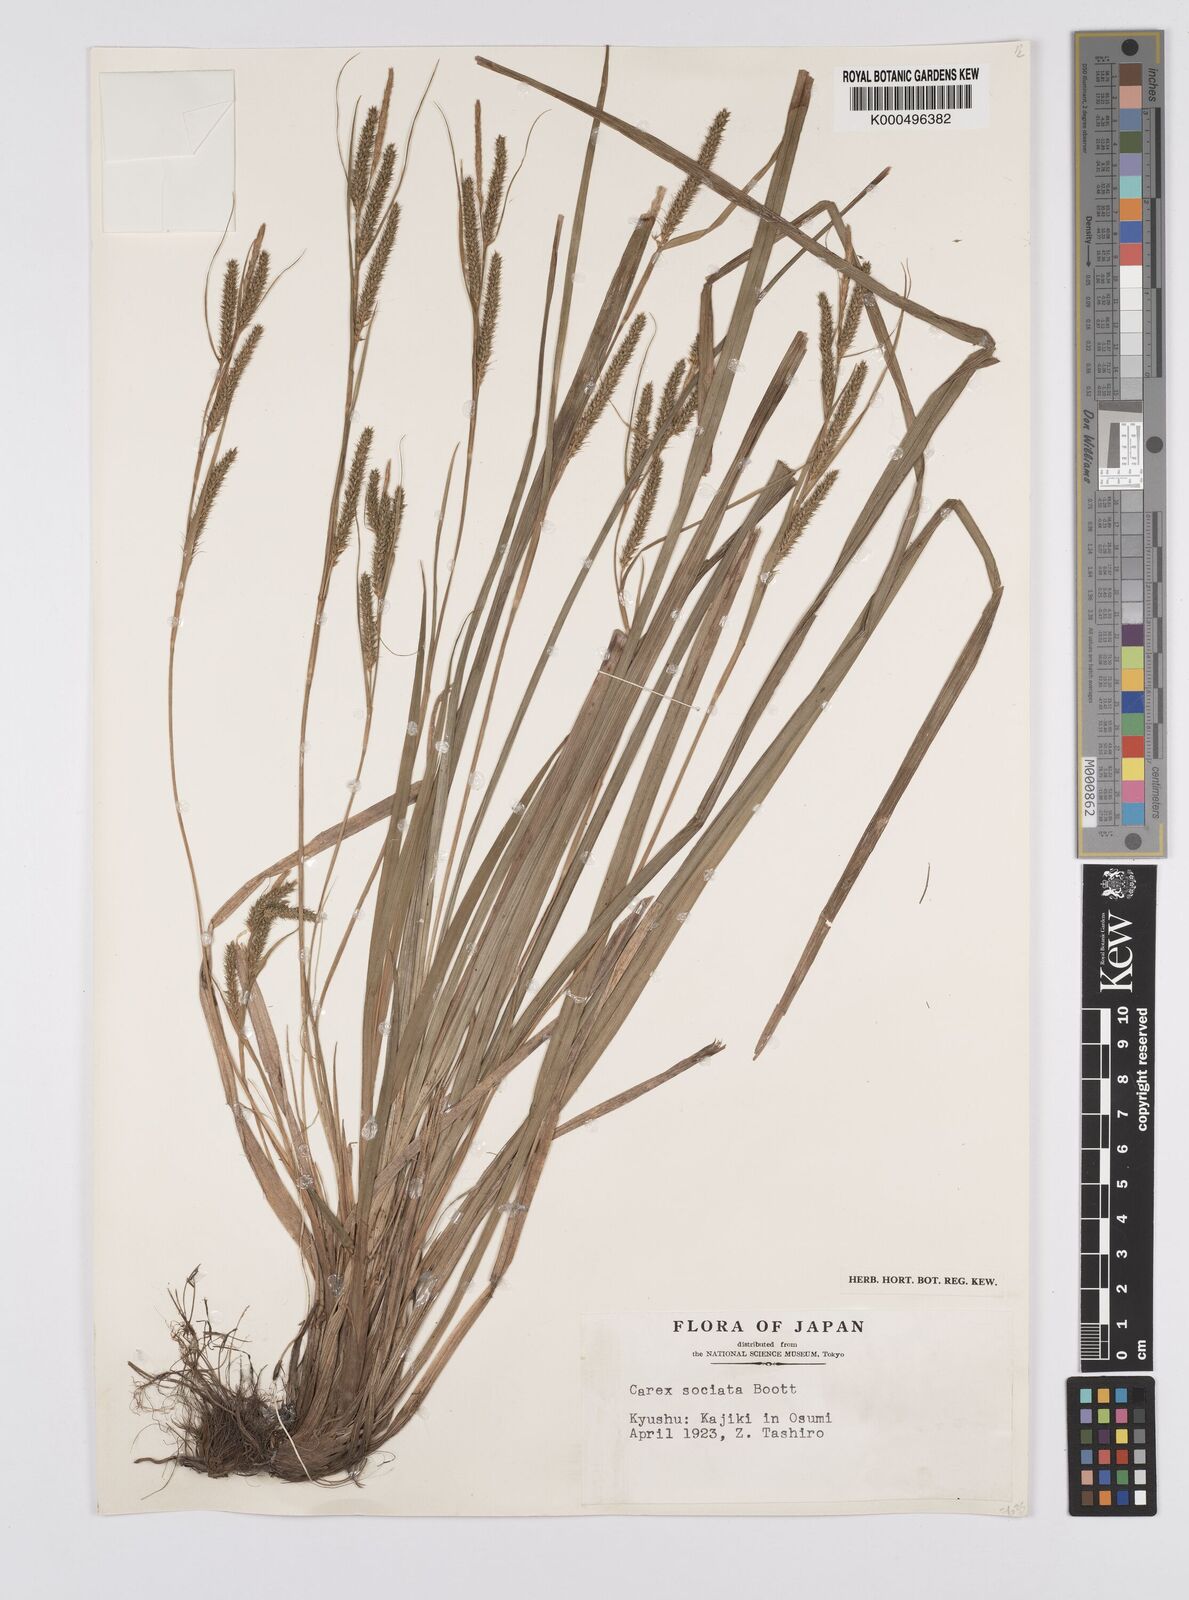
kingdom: Plantae
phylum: Tracheophyta
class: Liliopsida
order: Poales
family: Cyperaceae
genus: Carex
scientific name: Carex chinensis
